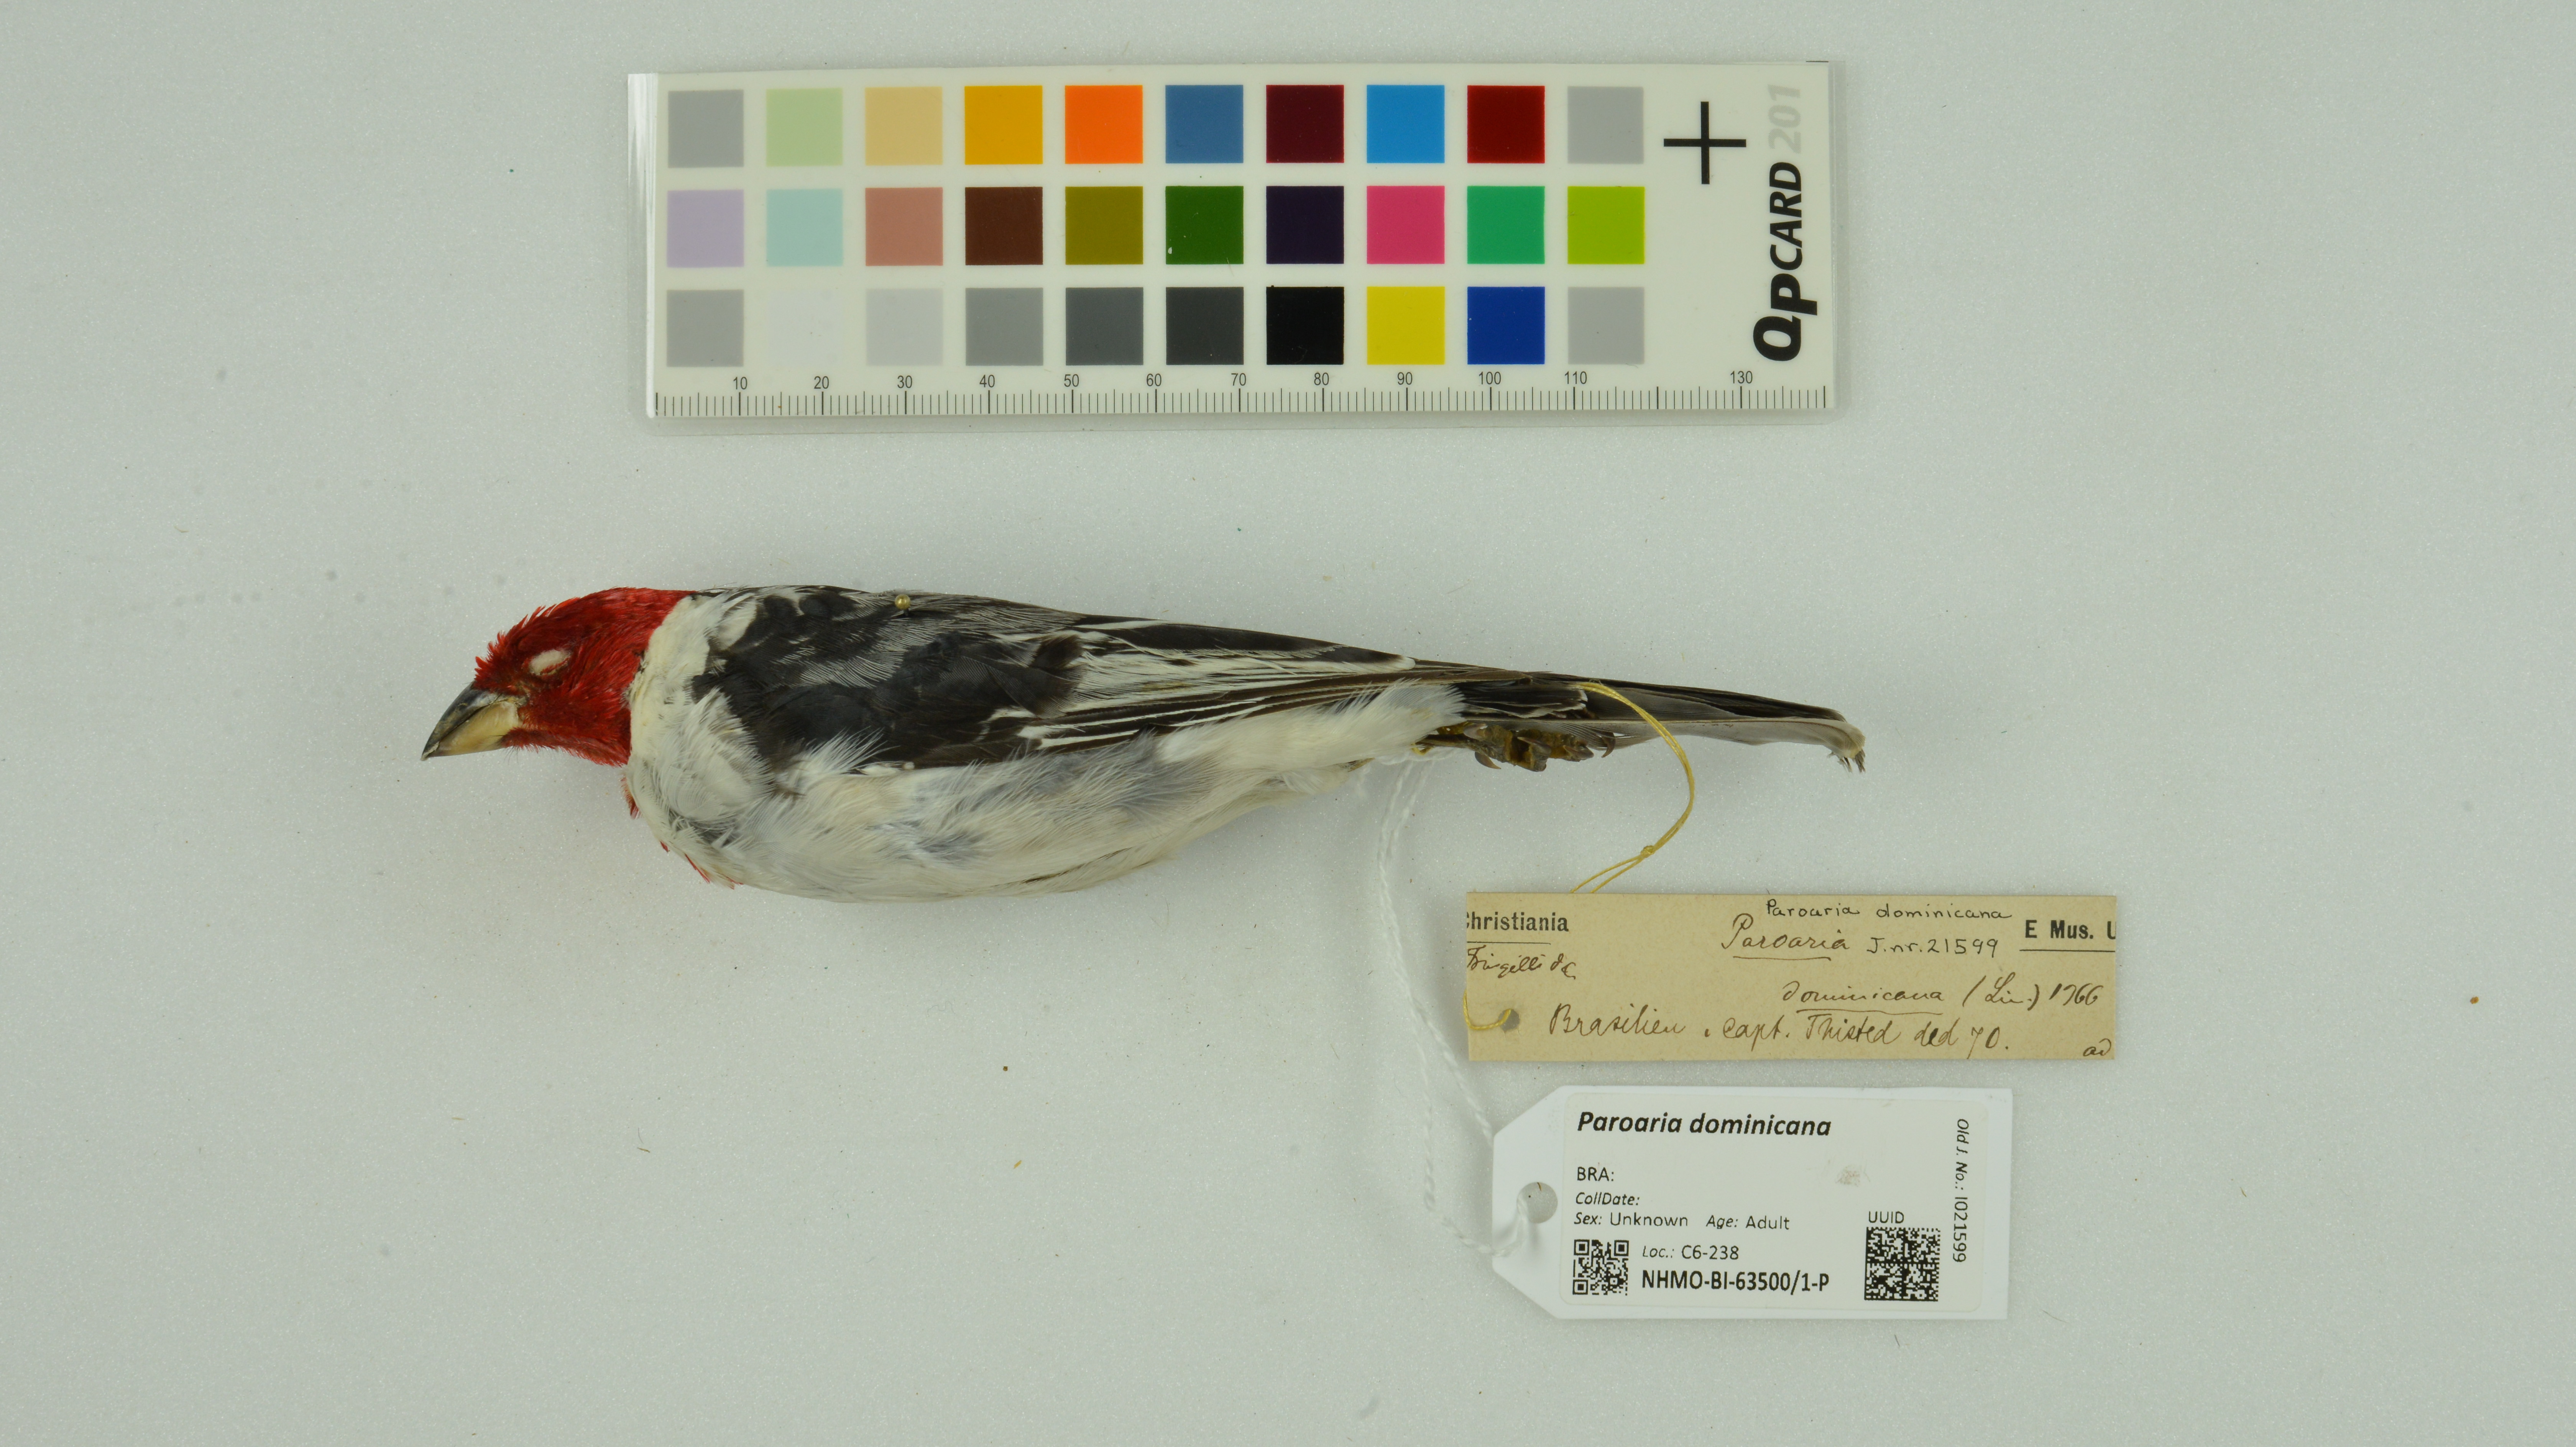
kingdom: Animalia
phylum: Chordata
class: Aves
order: Passeriformes
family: Thraupidae
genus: Paroaria
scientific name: Paroaria dominicana
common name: Red-cowled cardinal
